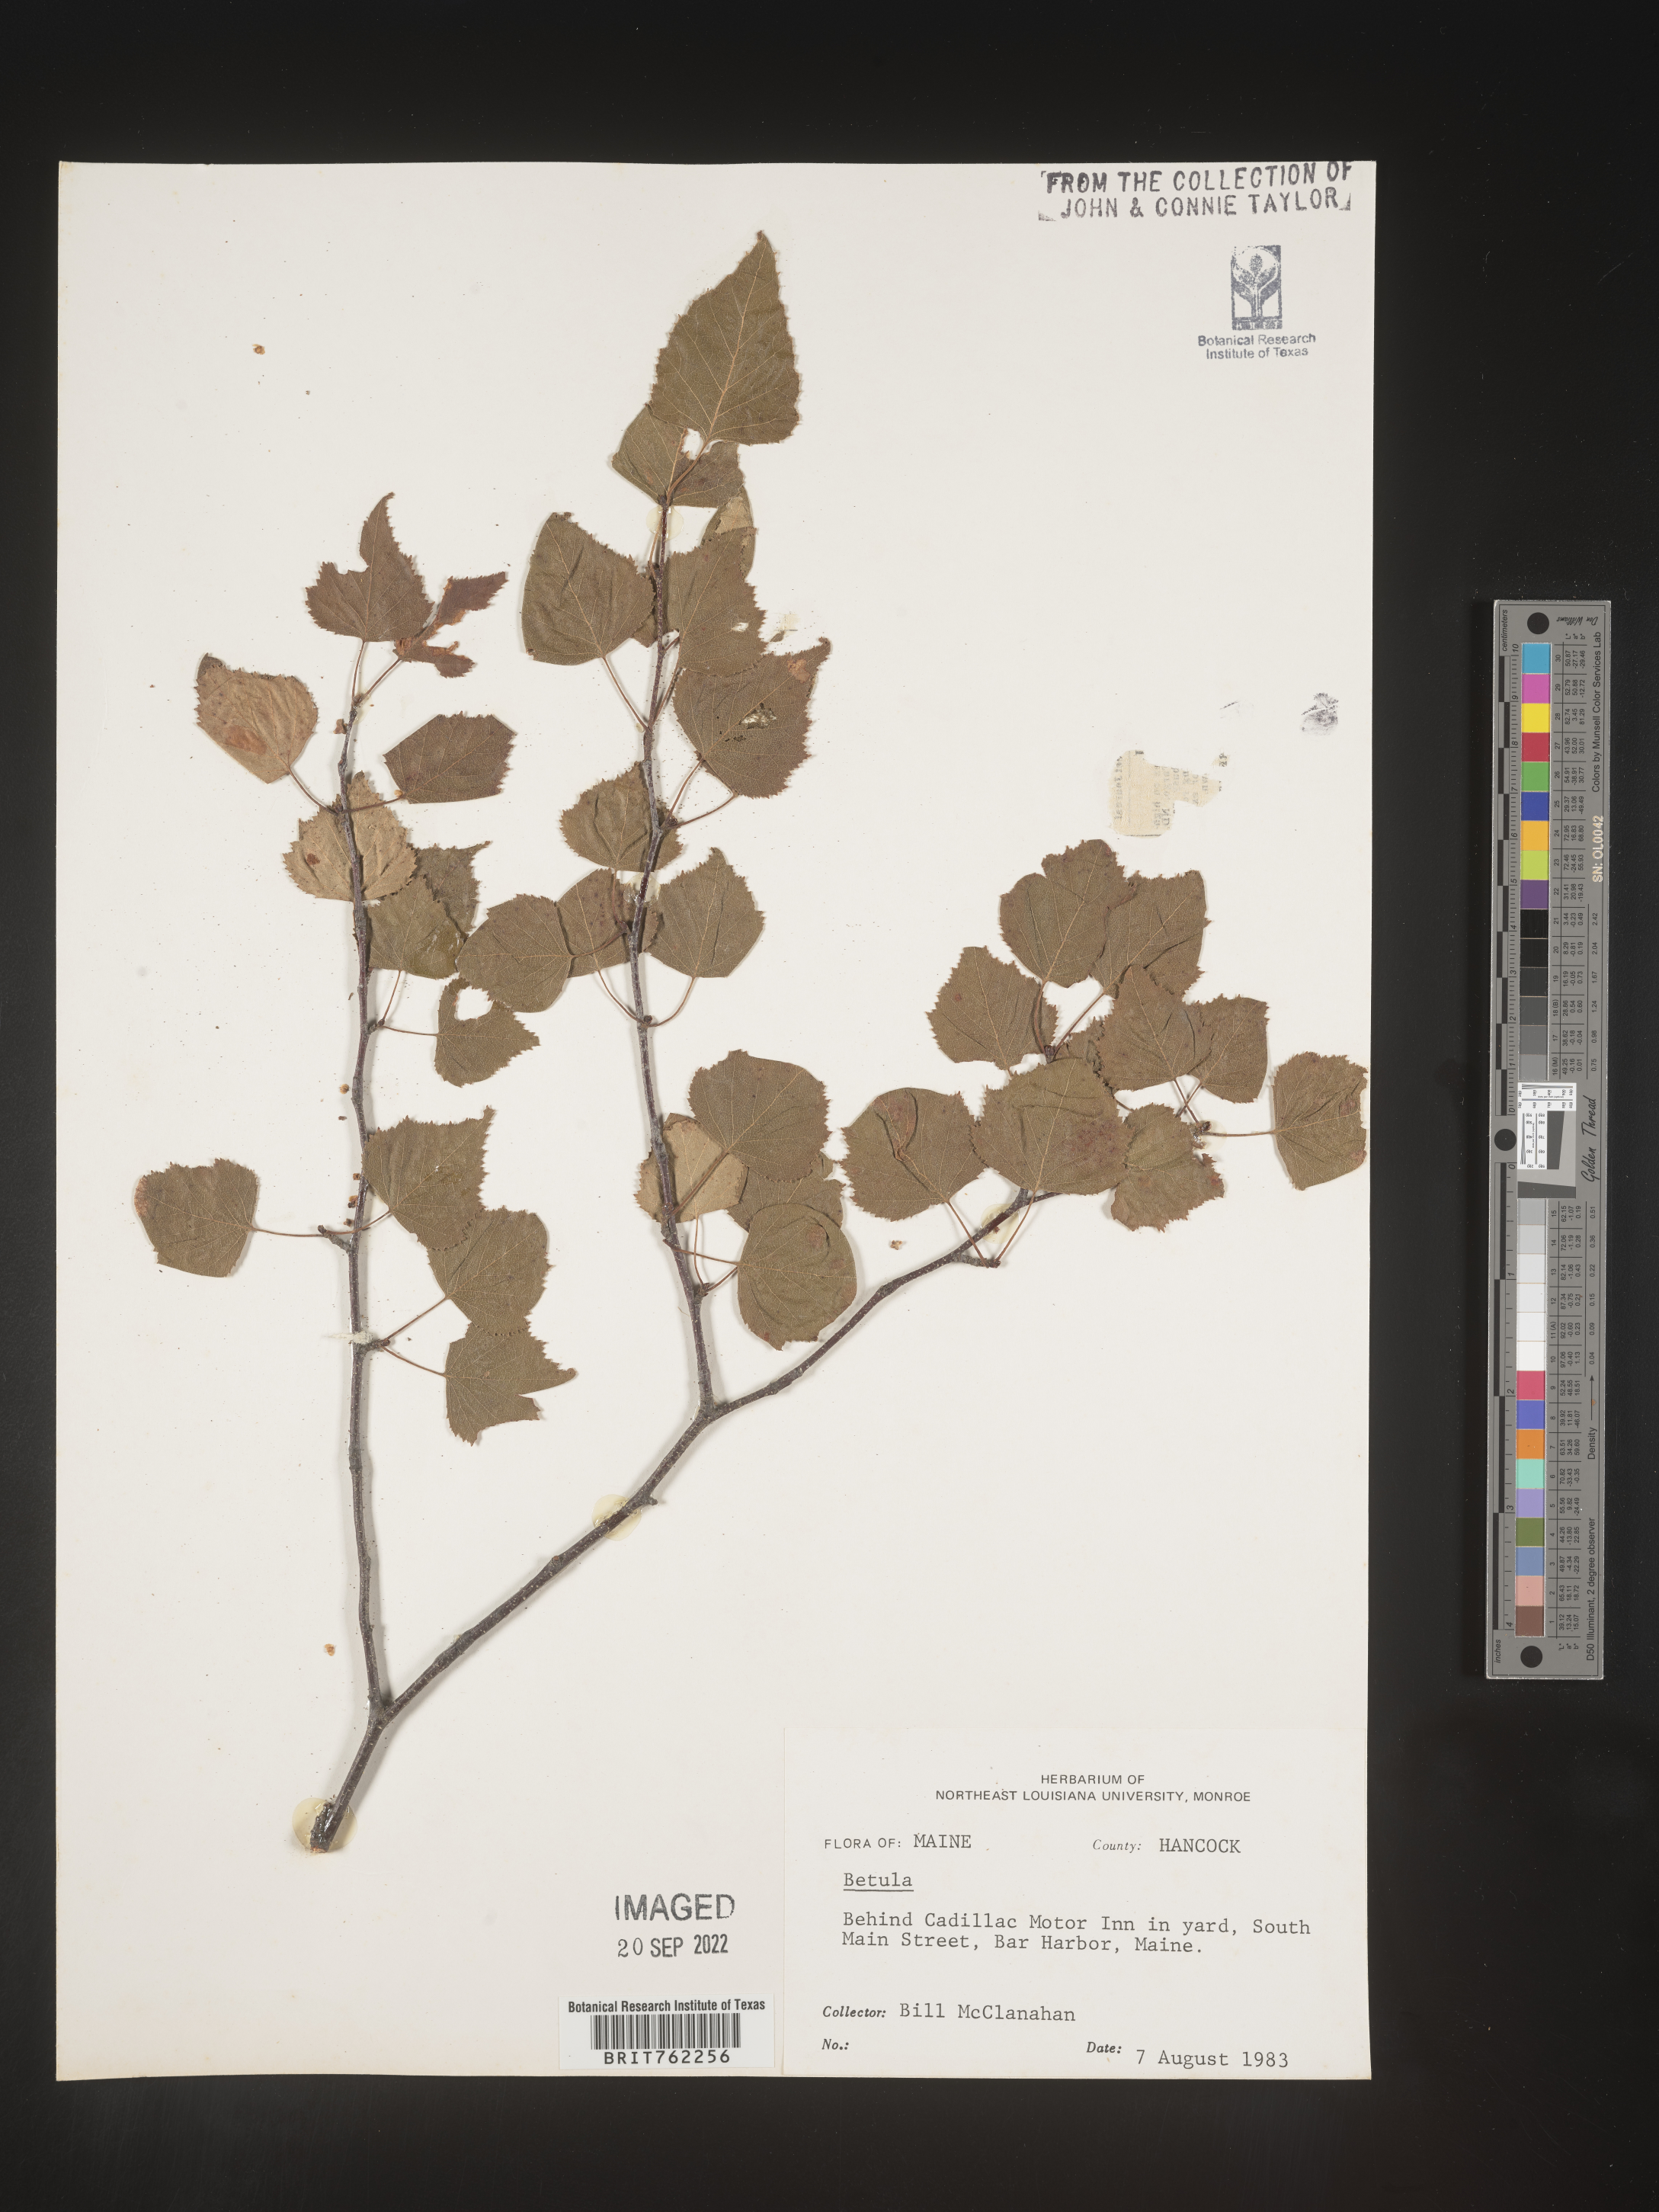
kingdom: Plantae
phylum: Tracheophyta
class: Magnoliopsida
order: Fagales
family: Betulaceae
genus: Betula
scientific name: Betula
